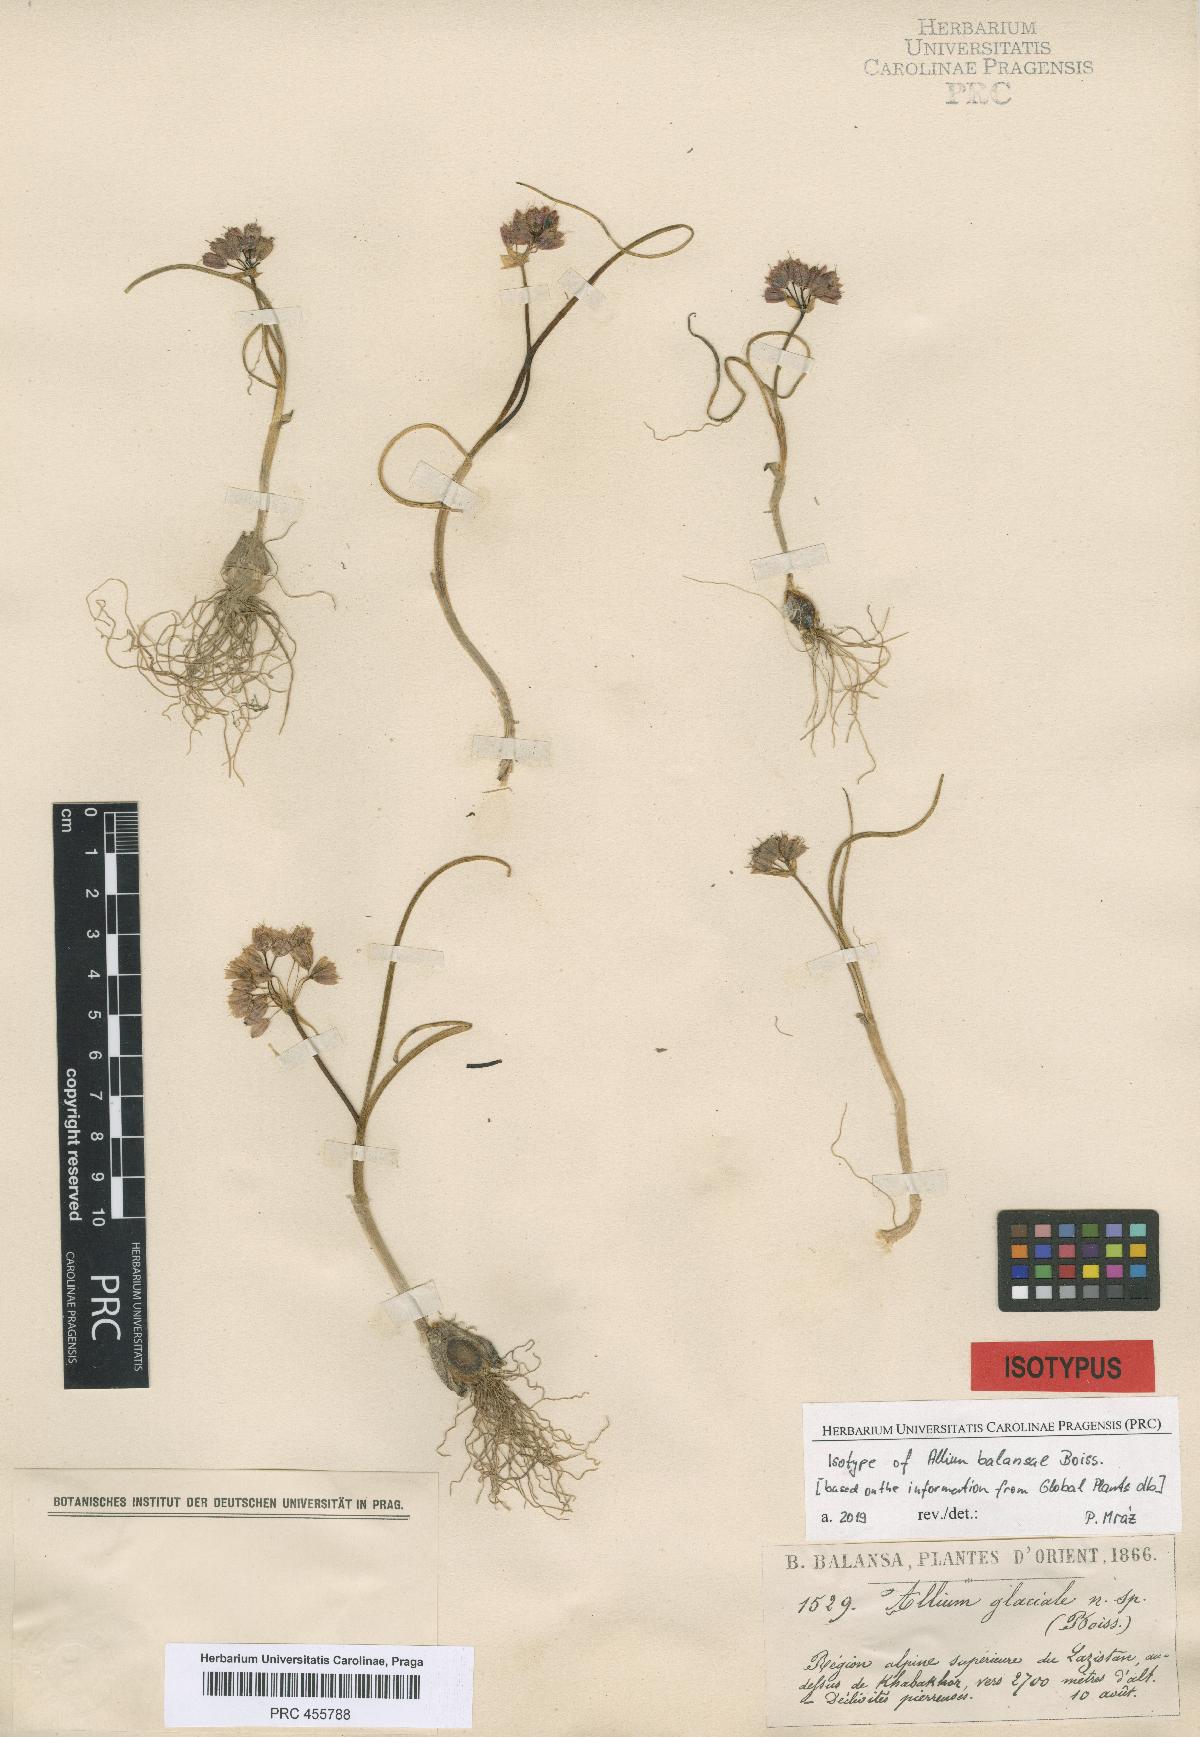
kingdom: Plantae
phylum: Tracheophyta
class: Liliopsida
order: Asparagales
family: Amaryllidaceae
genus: Allium
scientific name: Allium balansae
